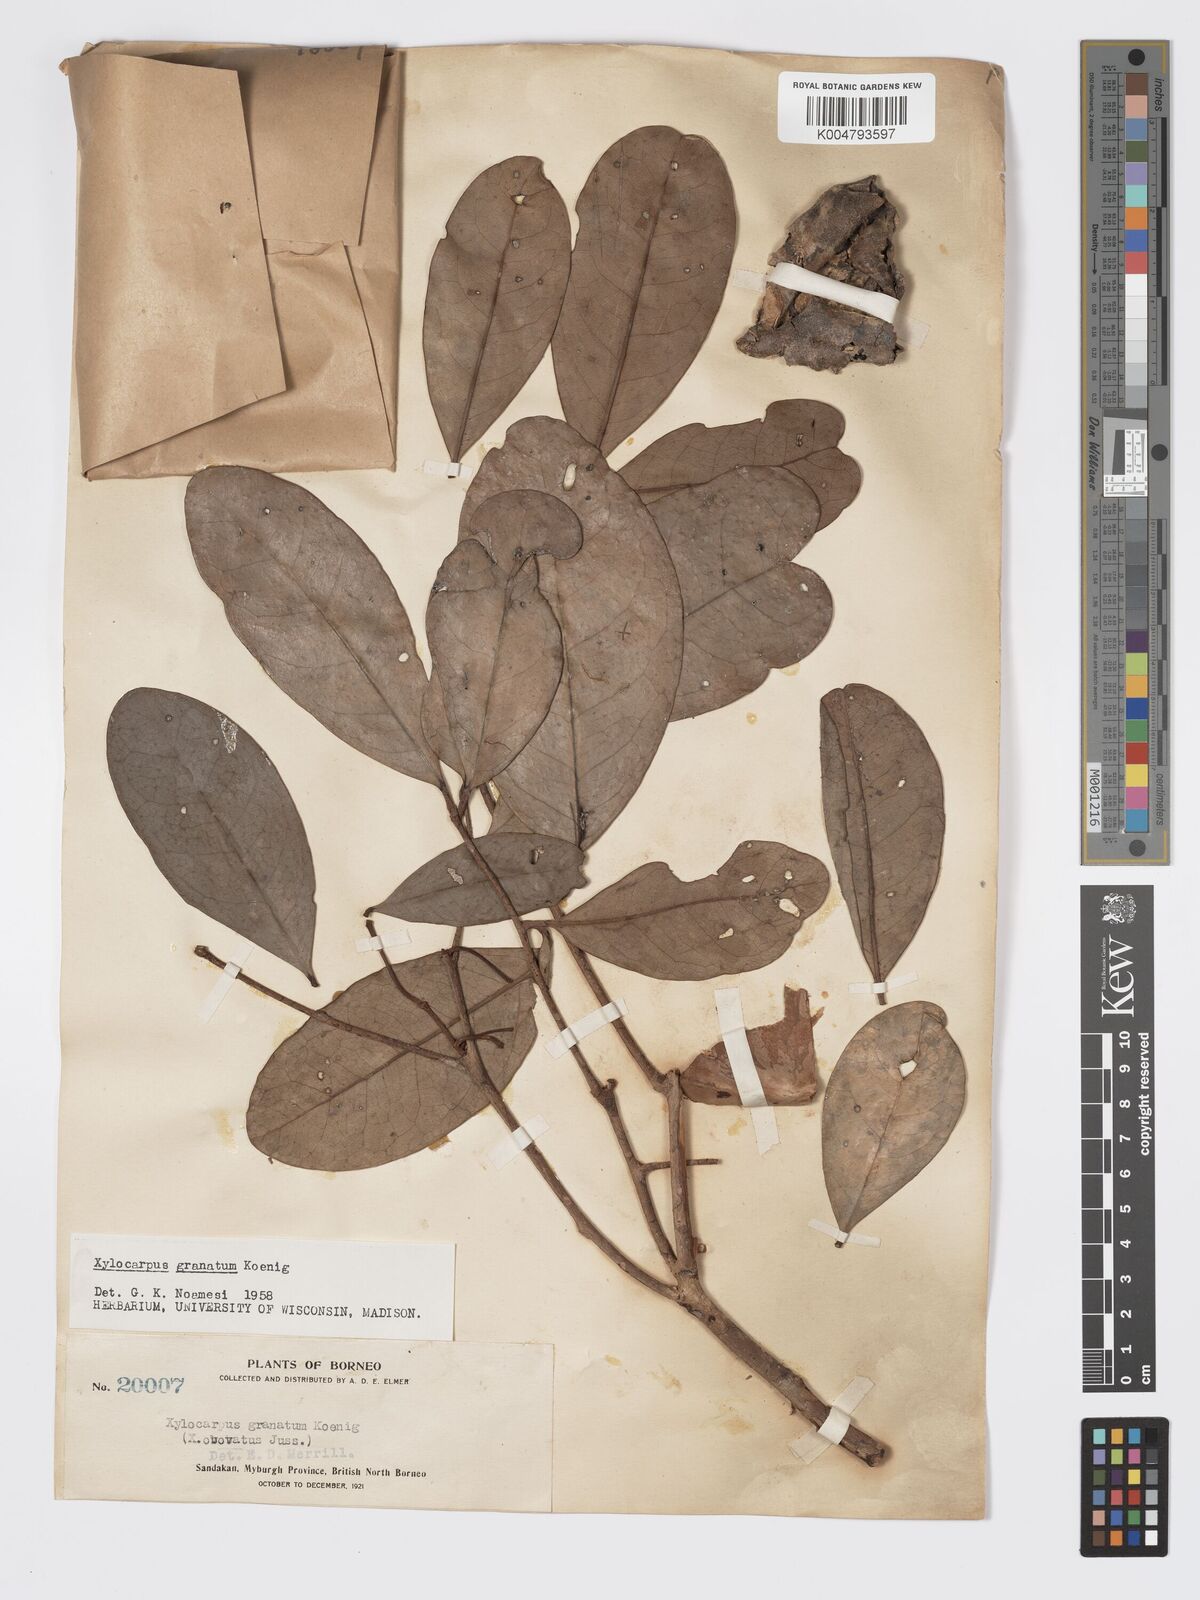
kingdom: Plantae
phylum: Tracheophyta
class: Magnoliopsida
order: Sapindales
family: Meliaceae
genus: Xylocarpus
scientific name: Xylocarpus granatum
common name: Apple mangrove
